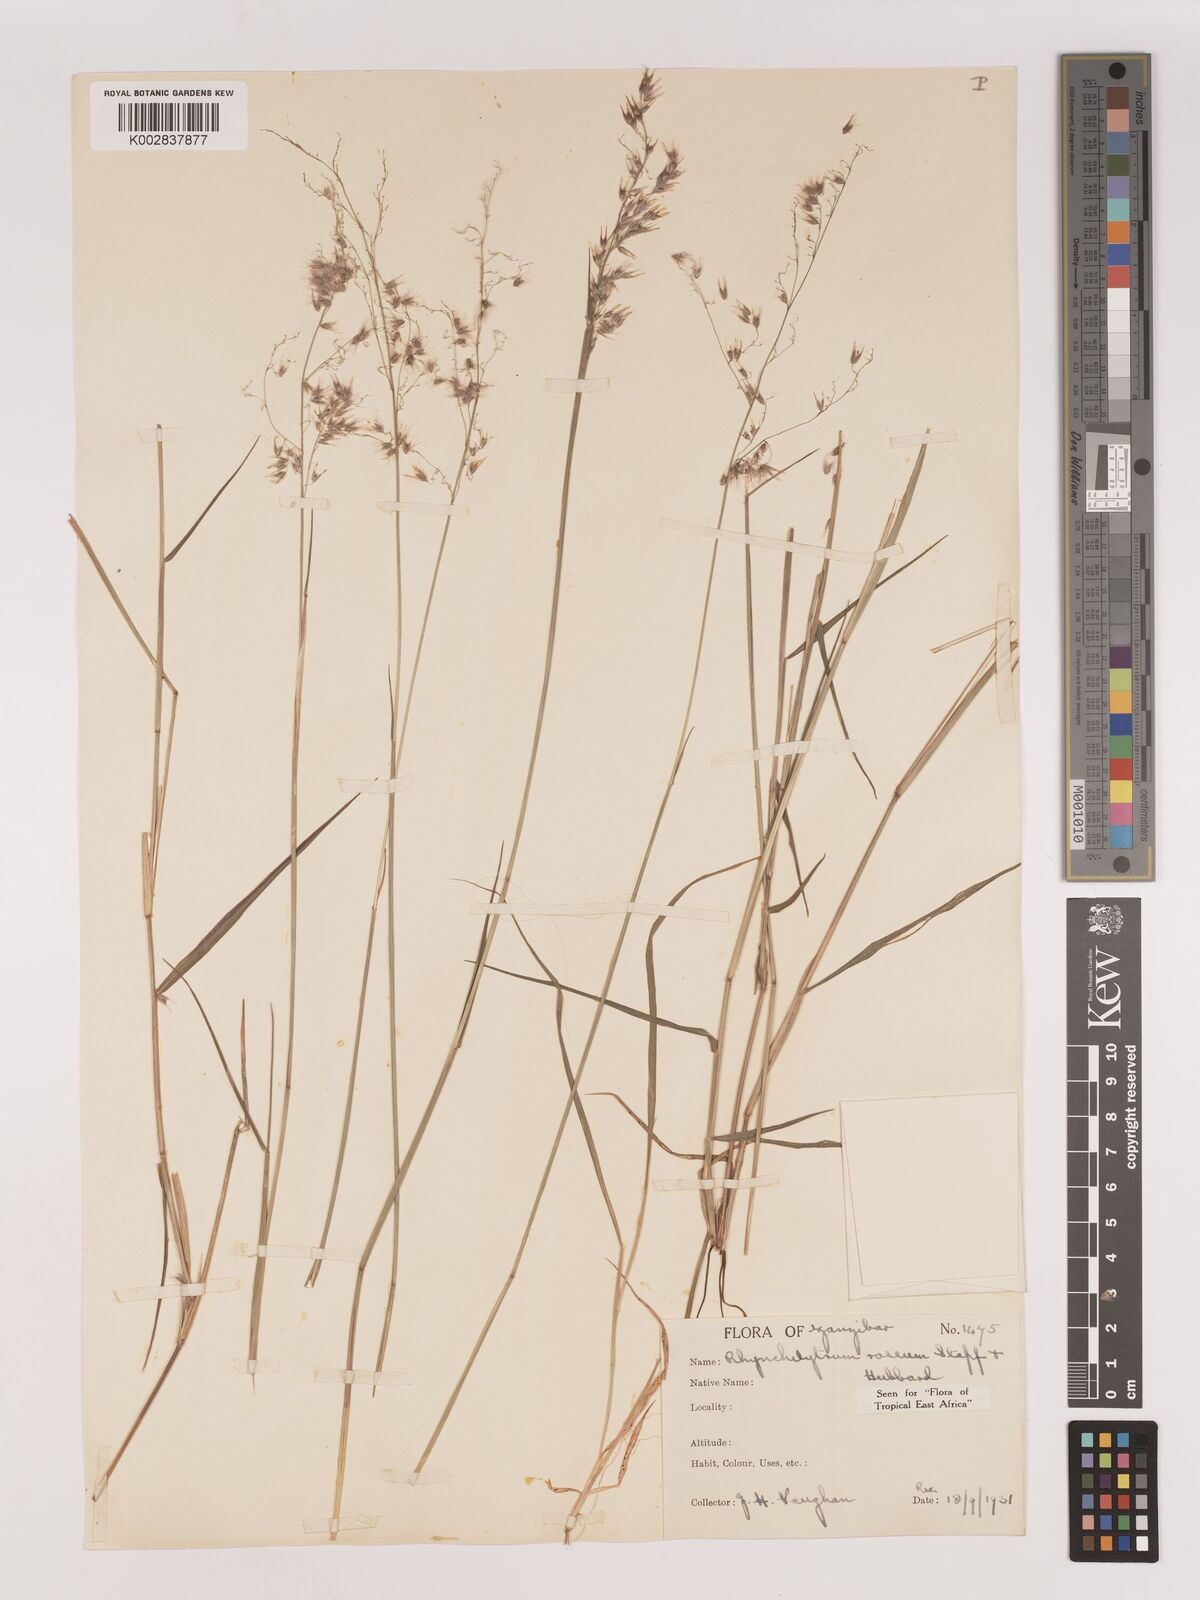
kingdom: Plantae
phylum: Tracheophyta
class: Liliopsida
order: Poales
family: Poaceae
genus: Melinis
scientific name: Melinis repens
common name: Rose natal grass
